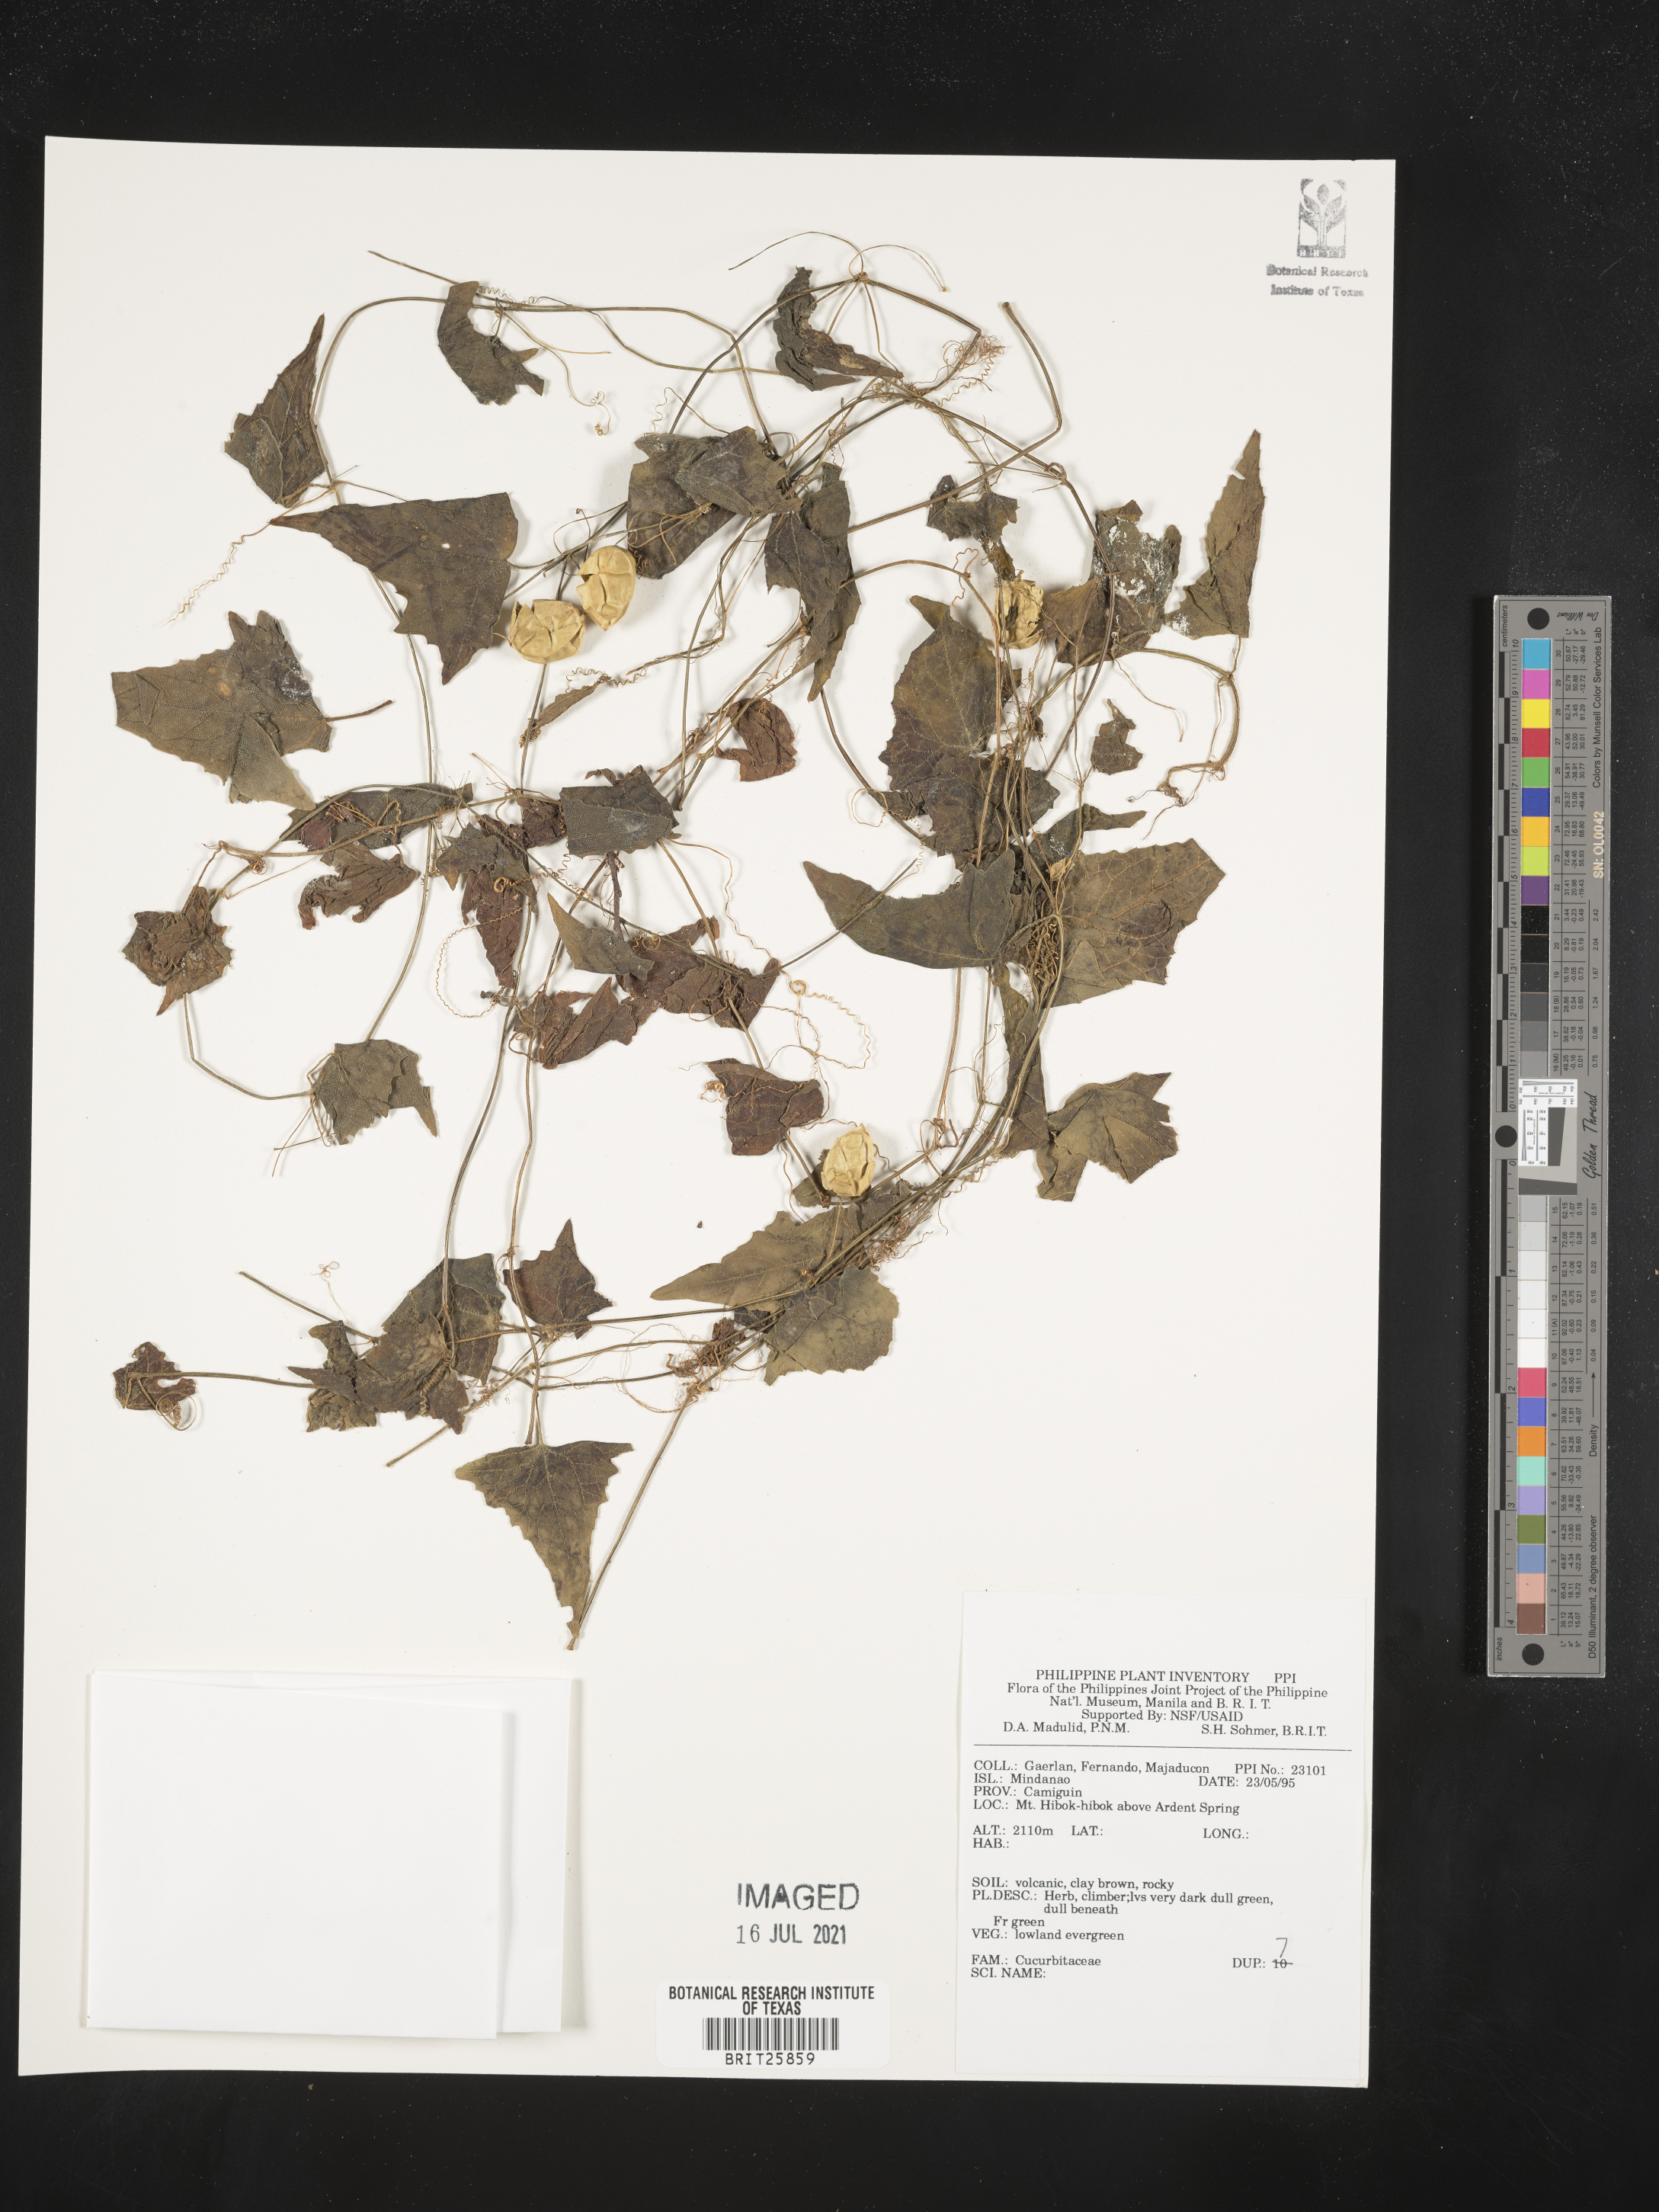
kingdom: Plantae
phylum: Tracheophyta
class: Magnoliopsida
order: Cucurbitales
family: Cucurbitaceae
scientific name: Cucurbitaceae
